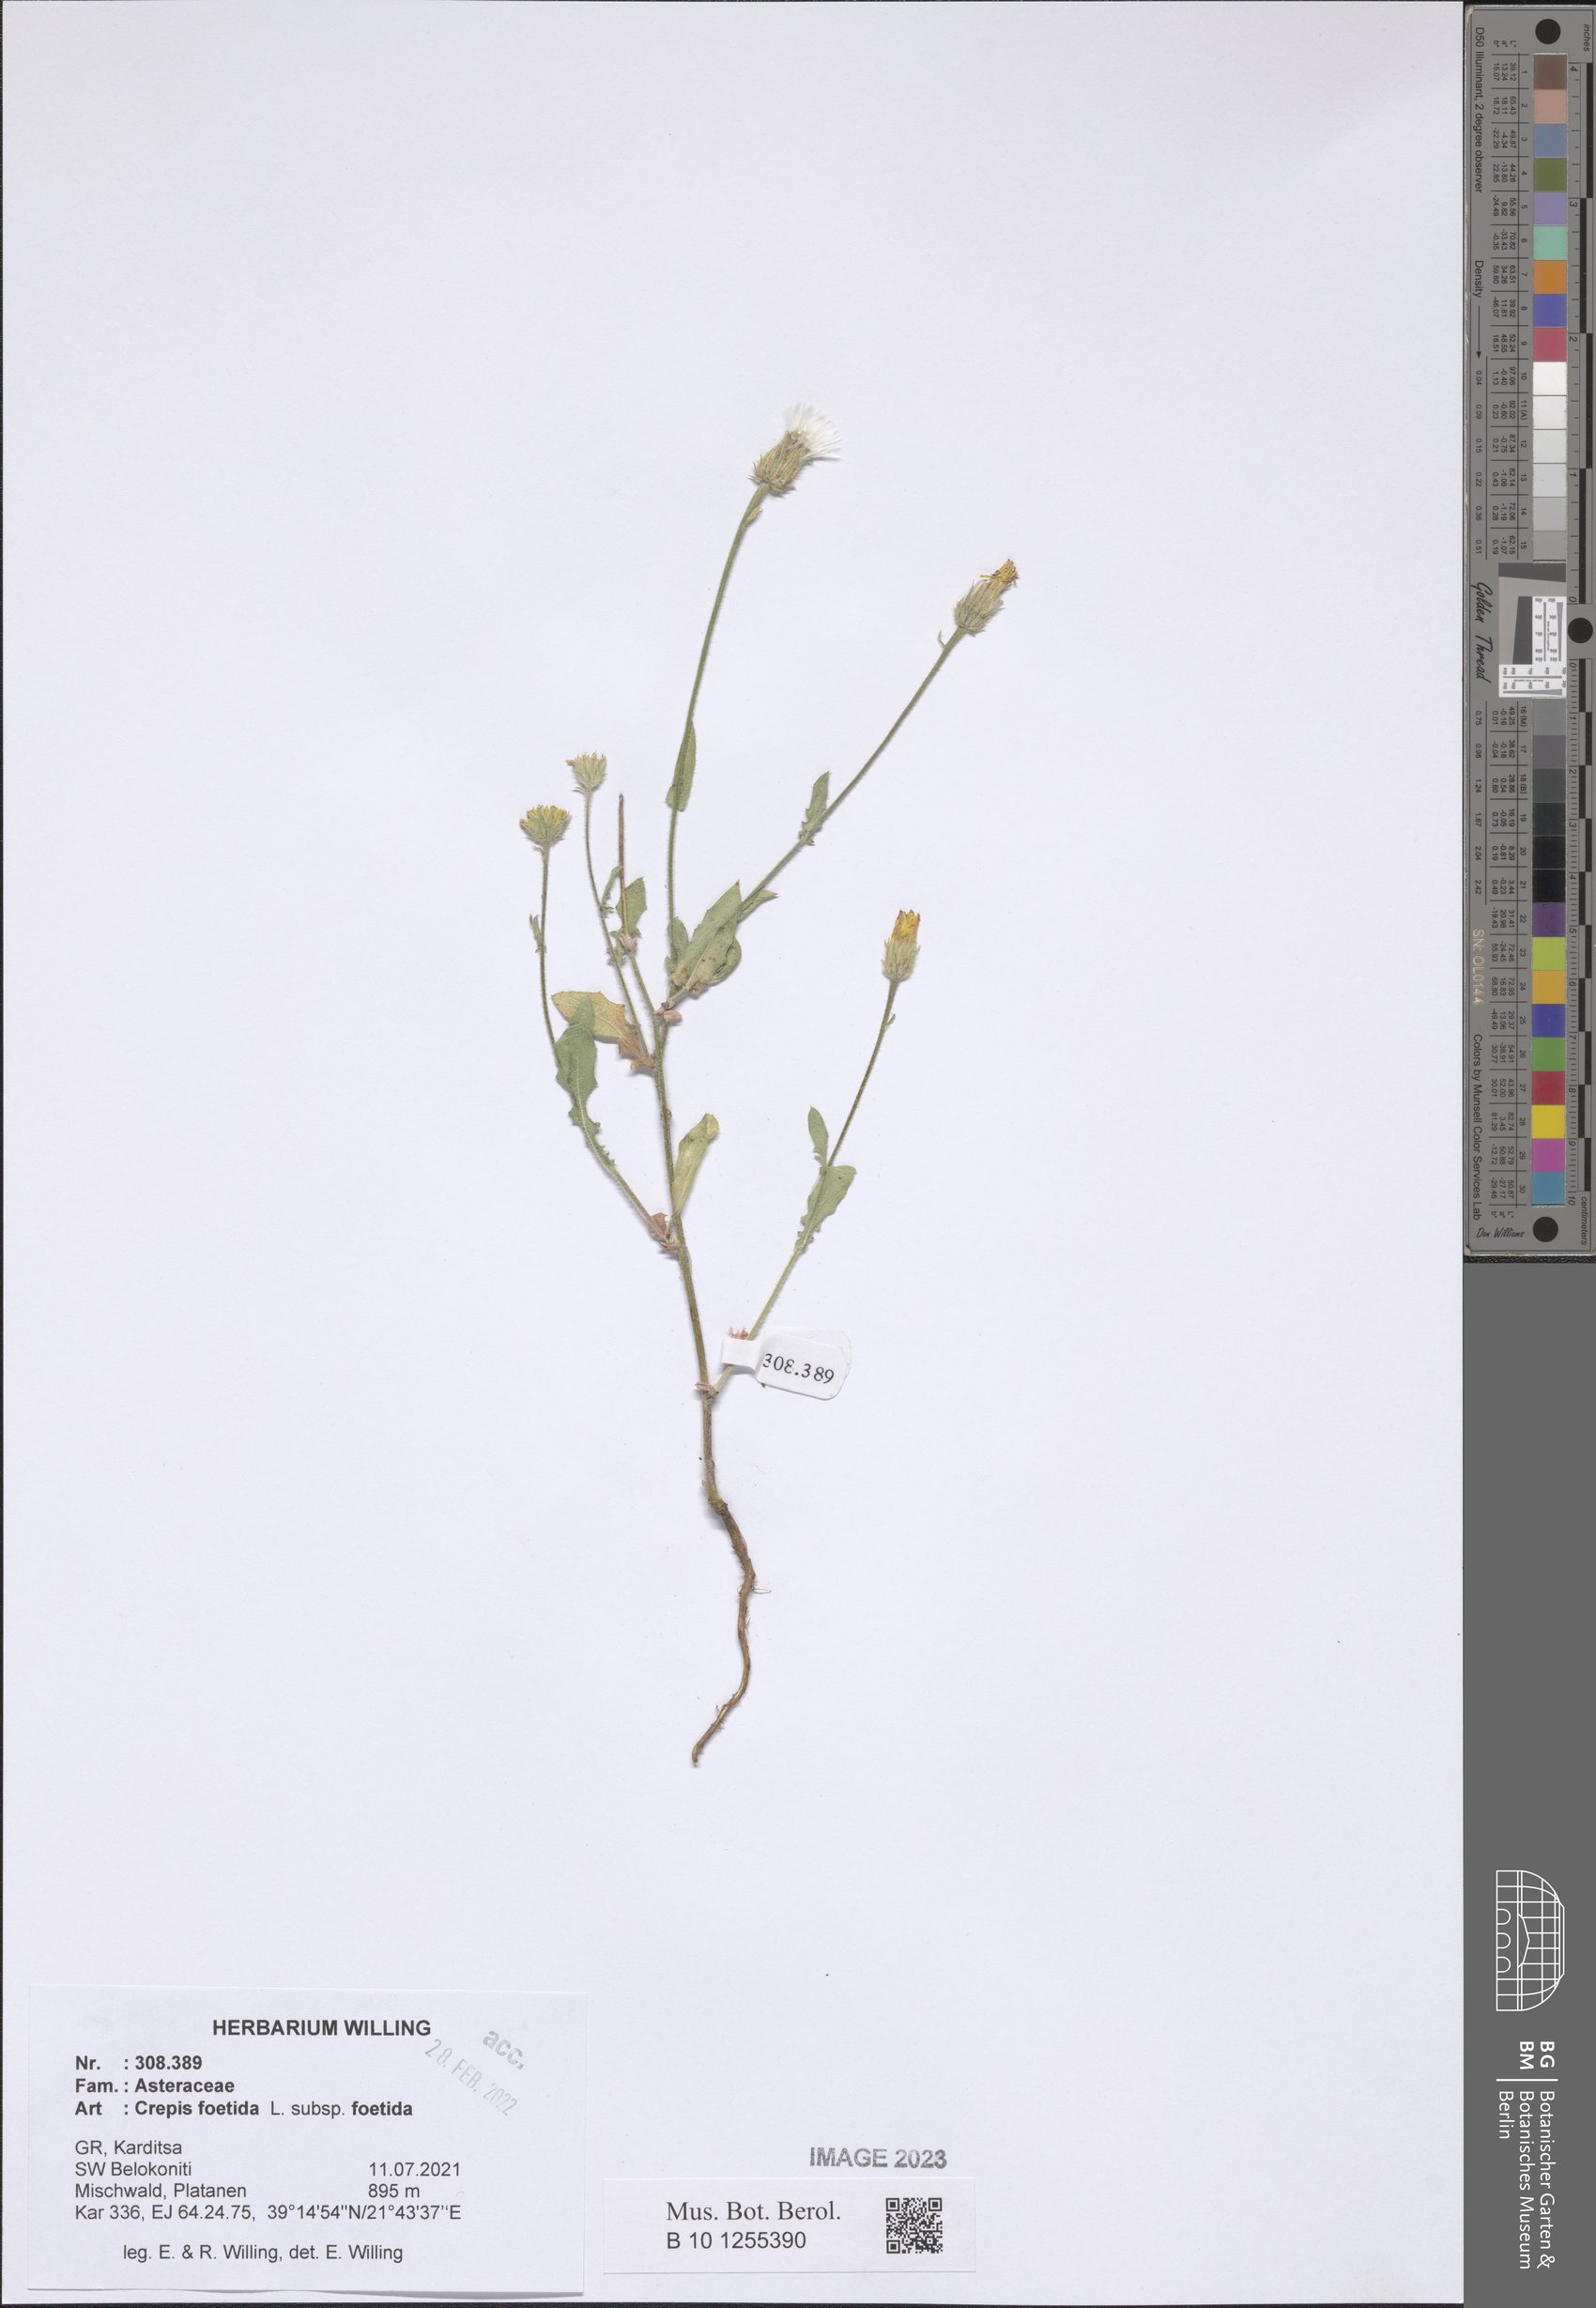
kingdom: Plantae
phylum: Tracheophyta
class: Magnoliopsida
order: Asterales
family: Asteraceae
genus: Crepis
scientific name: Crepis foetida
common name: Stinking hawk's-beard
